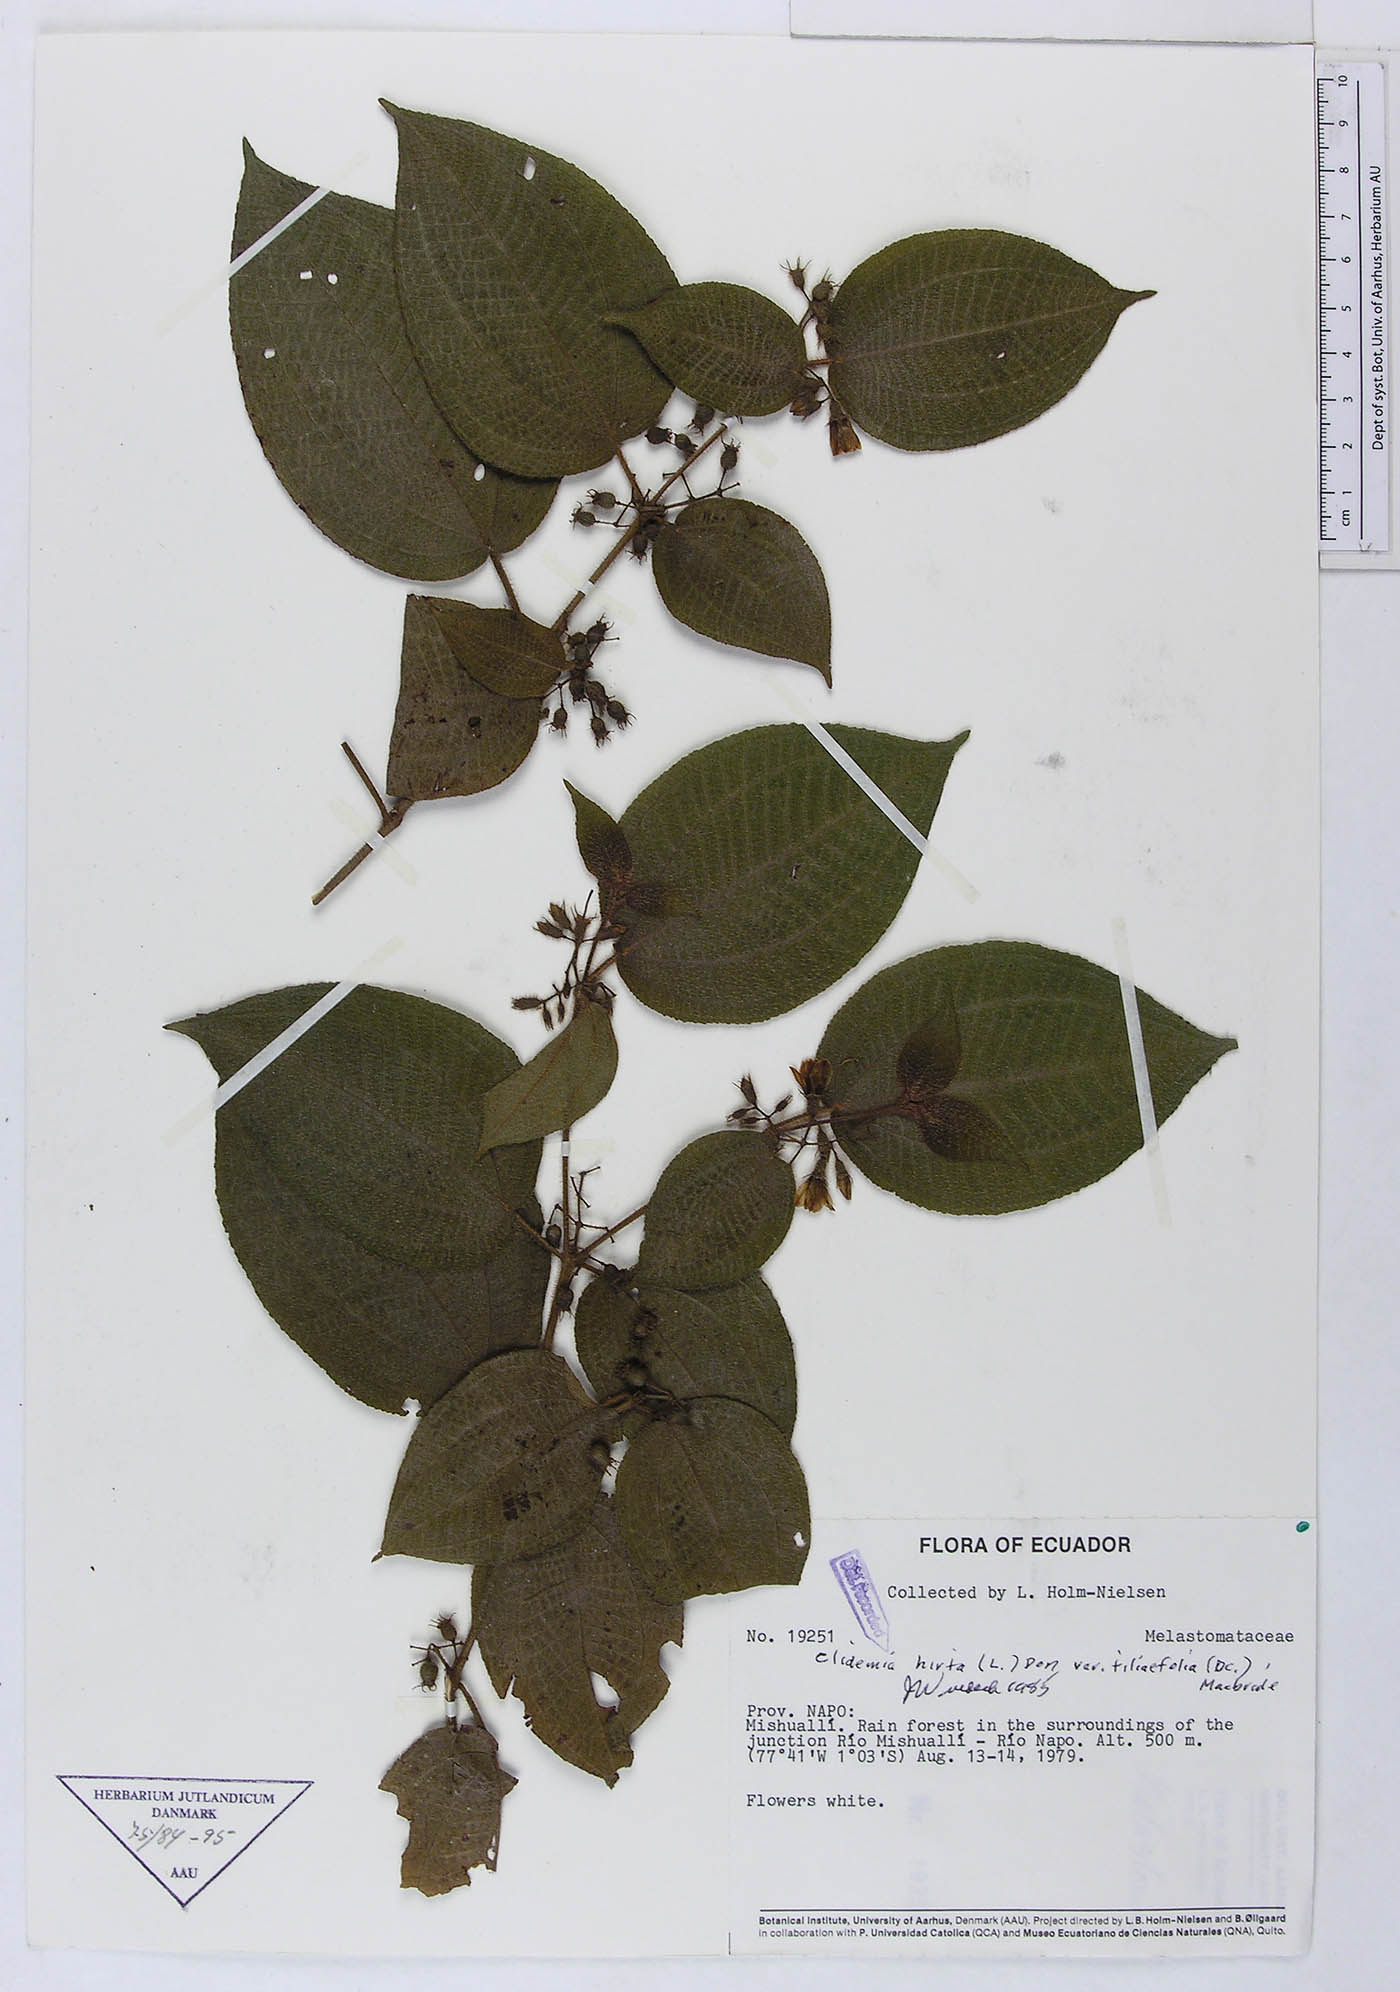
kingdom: Plantae
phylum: Tracheophyta
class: Magnoliopsida
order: Myrtales
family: Melastomataceae
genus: Miconia
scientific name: Miconia crenata
